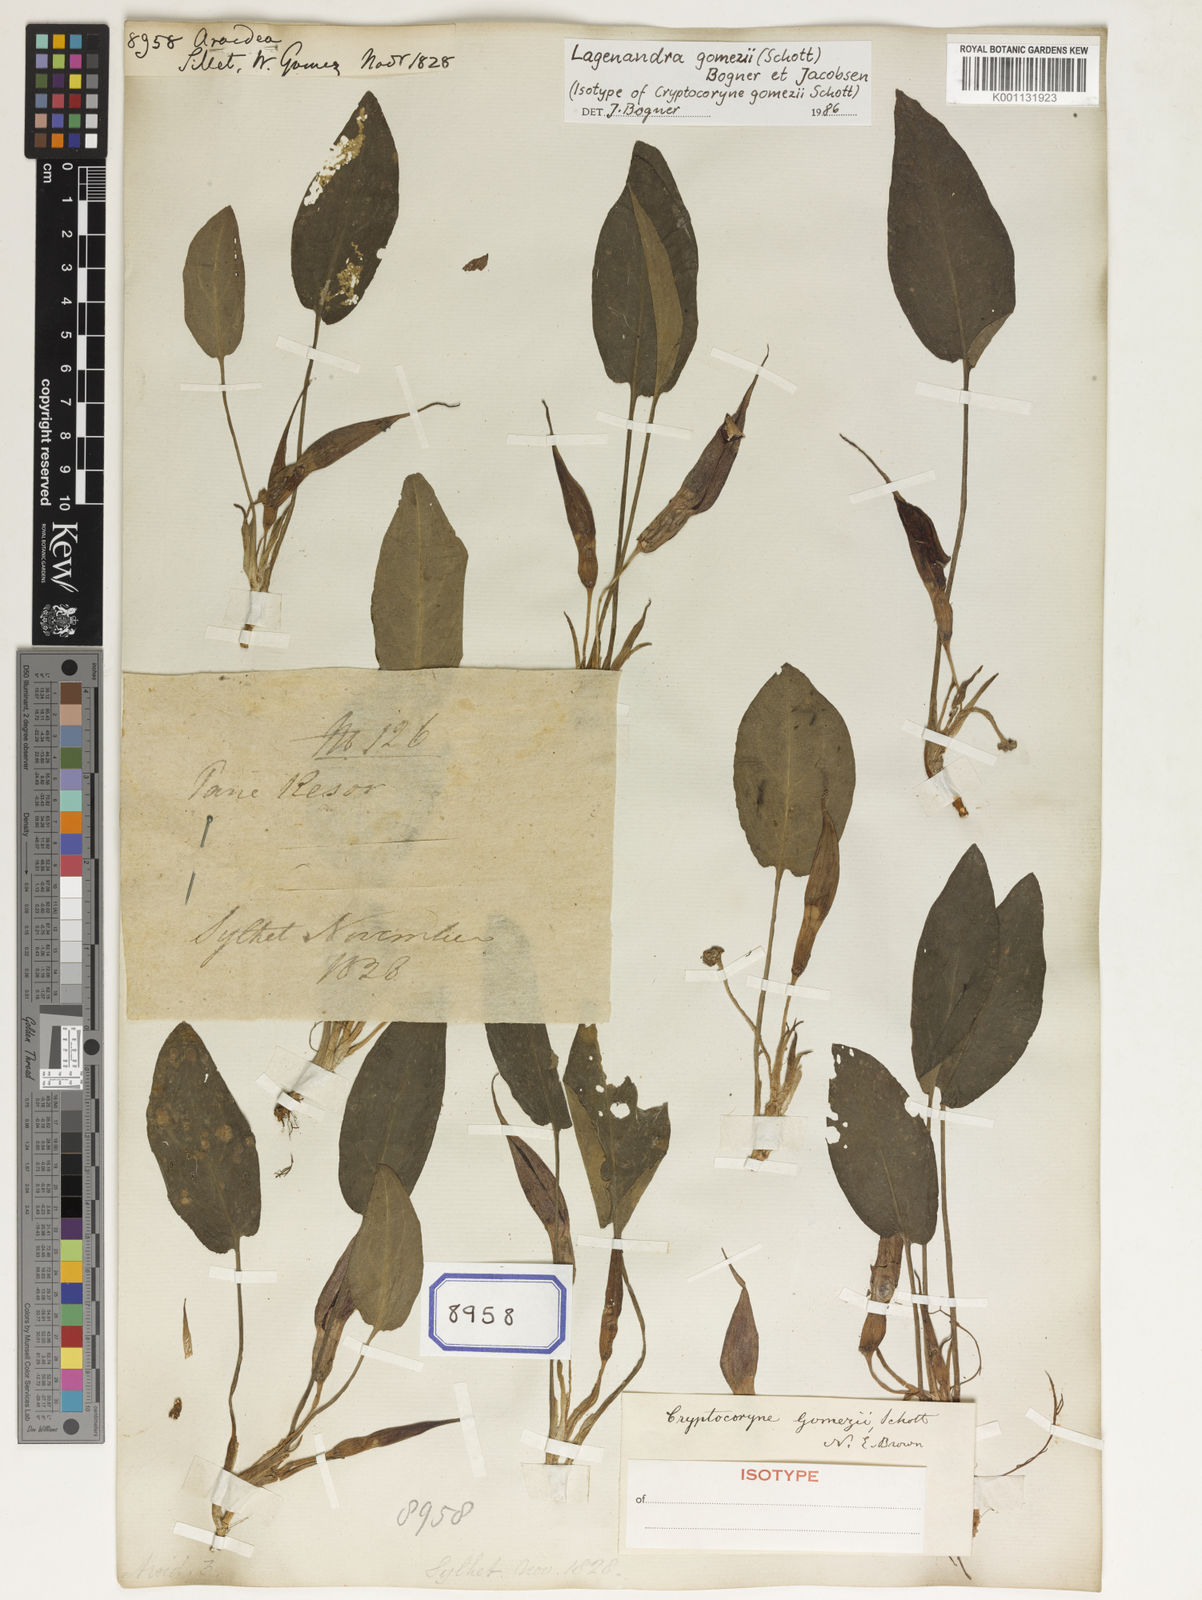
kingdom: Plantae
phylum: Tracheophyta
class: Liliopsida
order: Alismatales
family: Araceae
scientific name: Araceae
